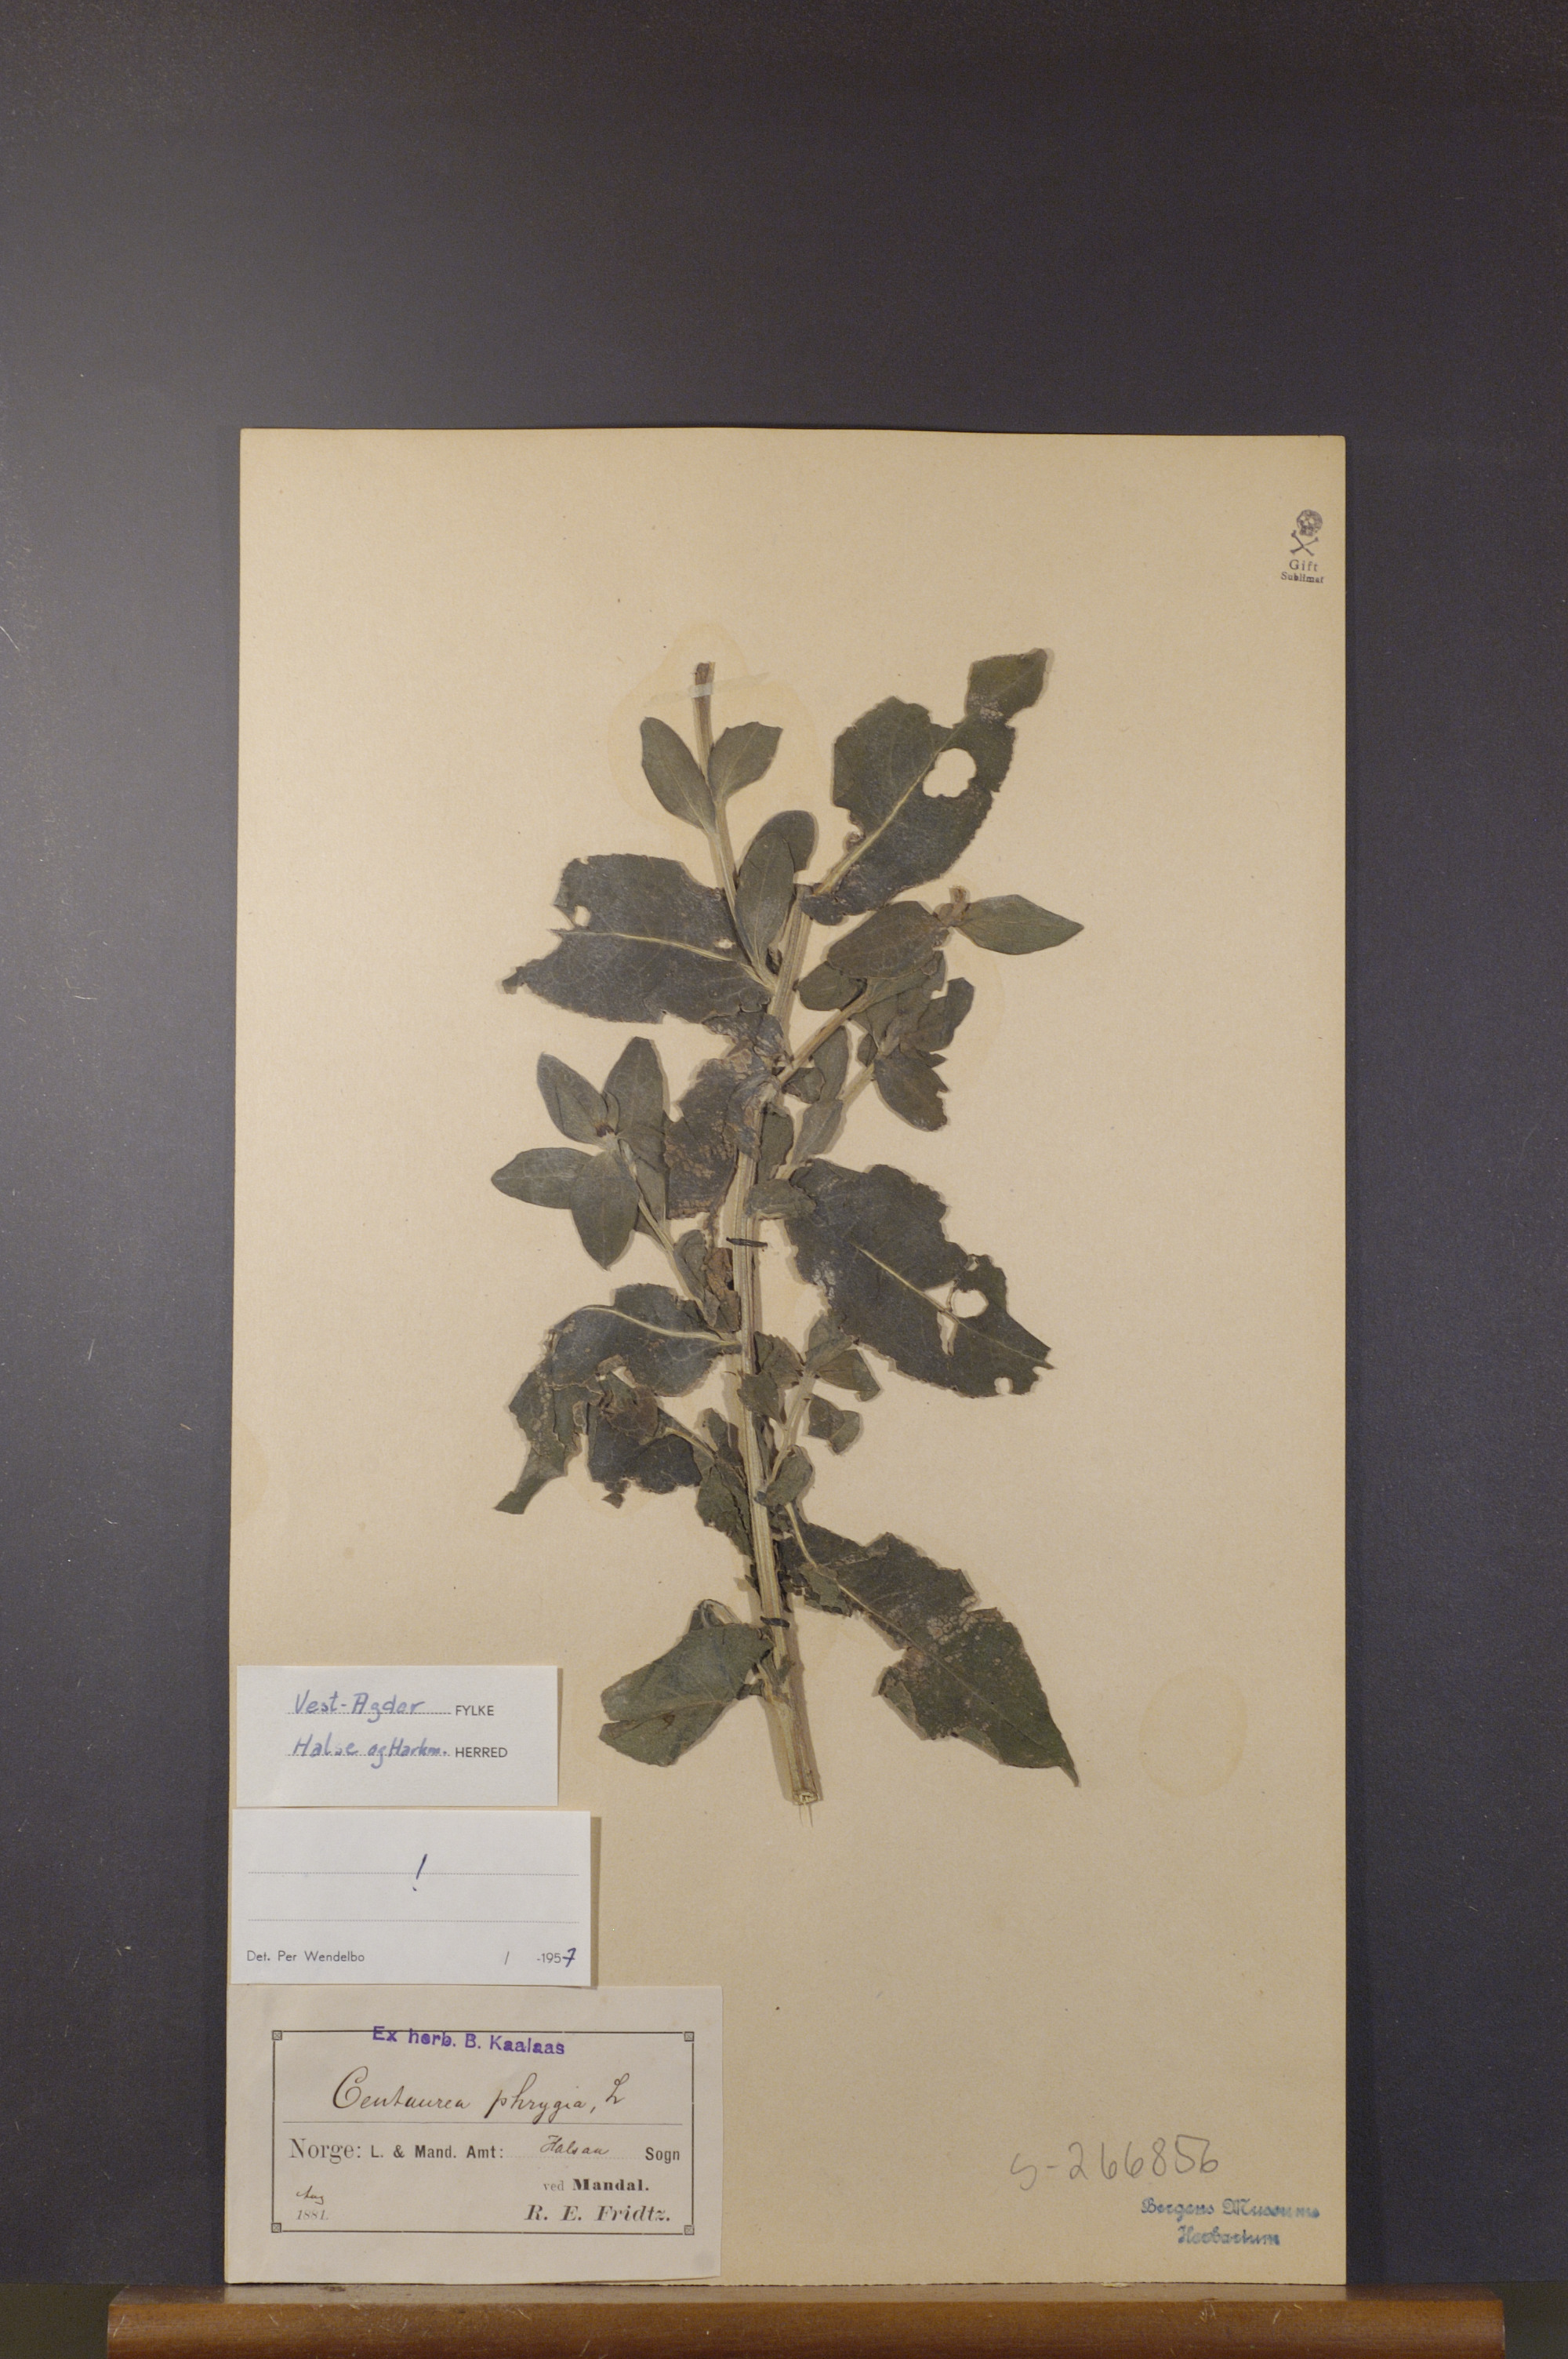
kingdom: Plantae
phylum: Tracheophyta
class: Magnoliopsida
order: Asterales
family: Asteraceae
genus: Centaurea
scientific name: Centaurea
